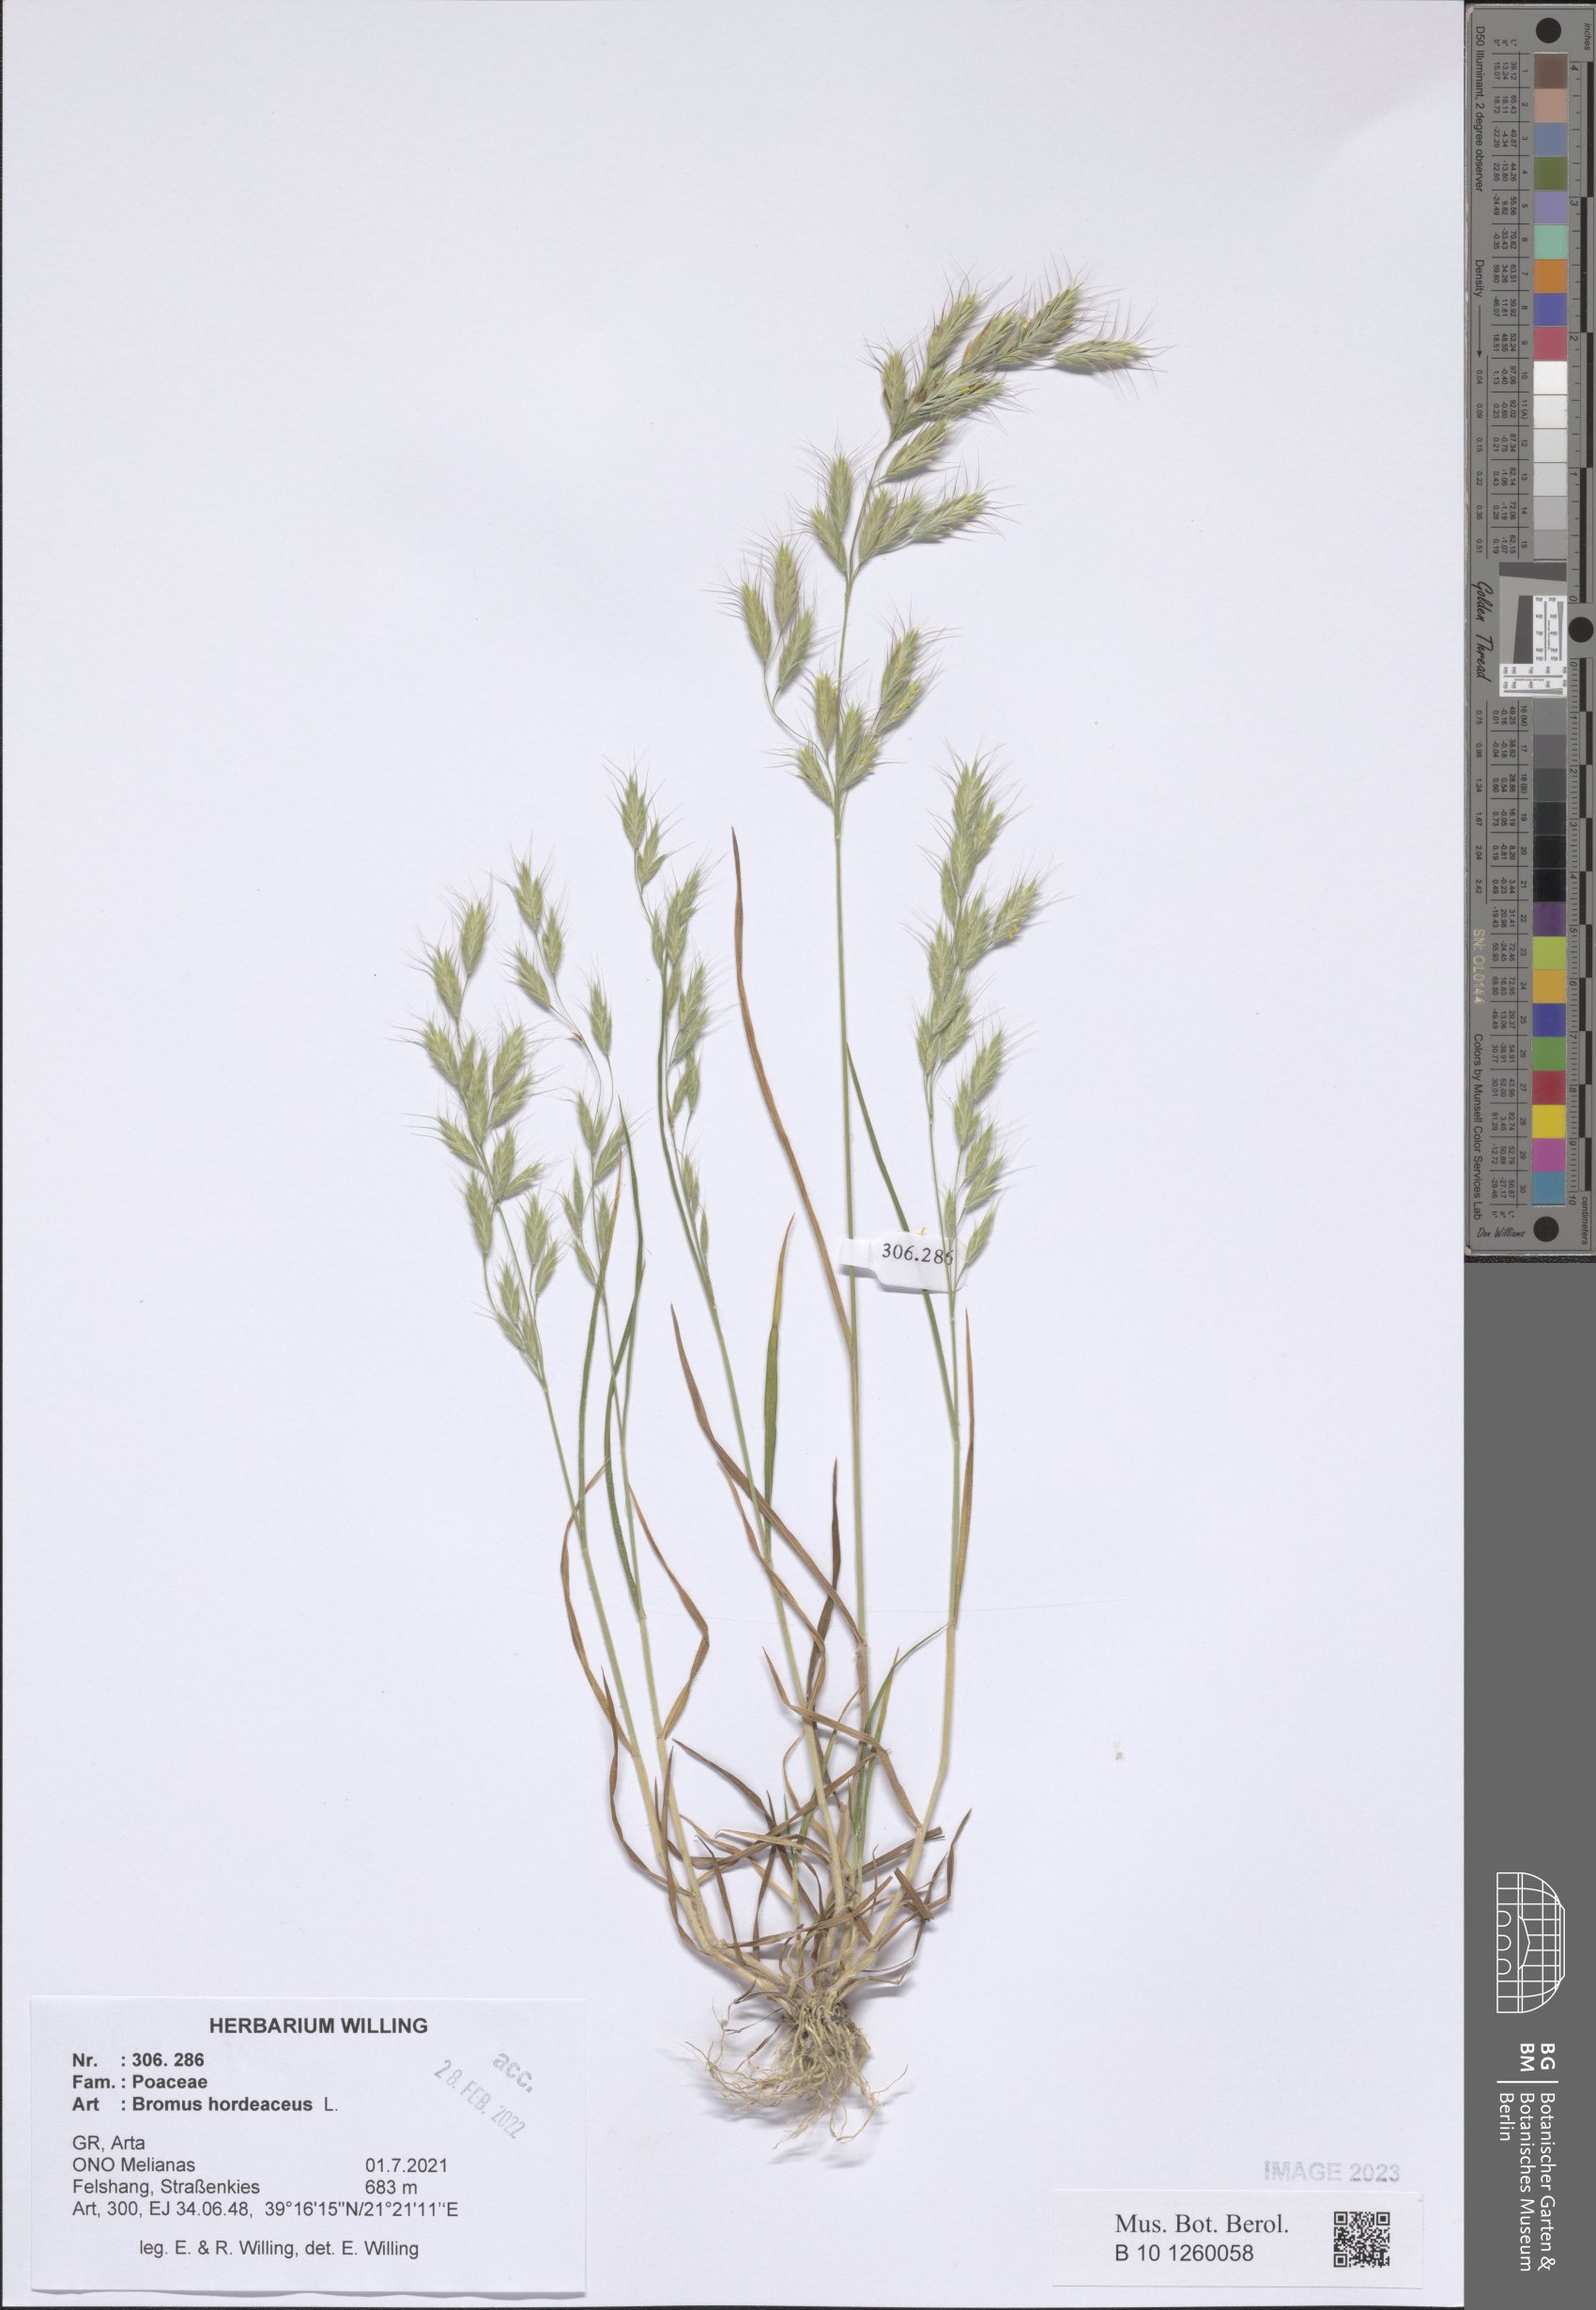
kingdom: Plantae
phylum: Tracheophyta
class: Liliopsida
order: Poales
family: Poaceae
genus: Bromus
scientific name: Bromus hordeaceus
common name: Soft brome
